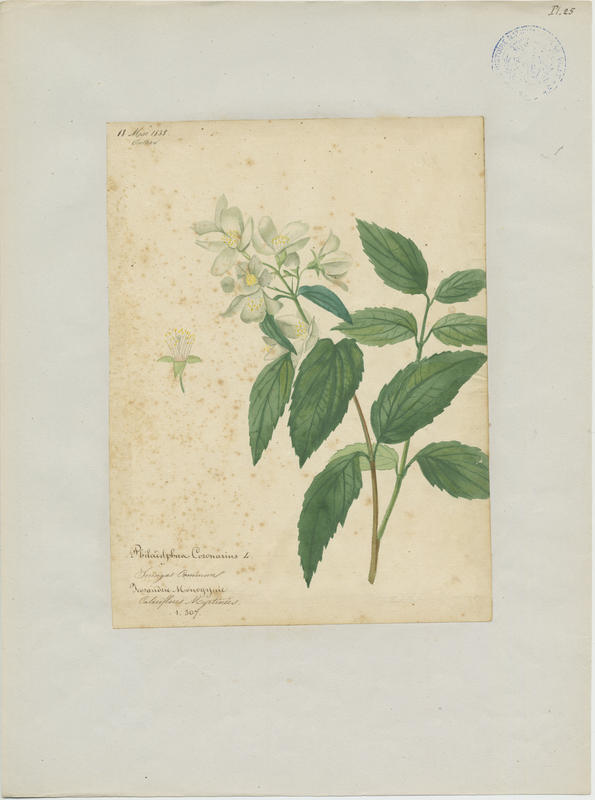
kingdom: Plantae
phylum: Tracheophyta
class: Magnoliopsida
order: Cornales
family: Hydrangeaceae
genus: Philadelphus
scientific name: Philadelphus coronarius
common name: Mock orange
